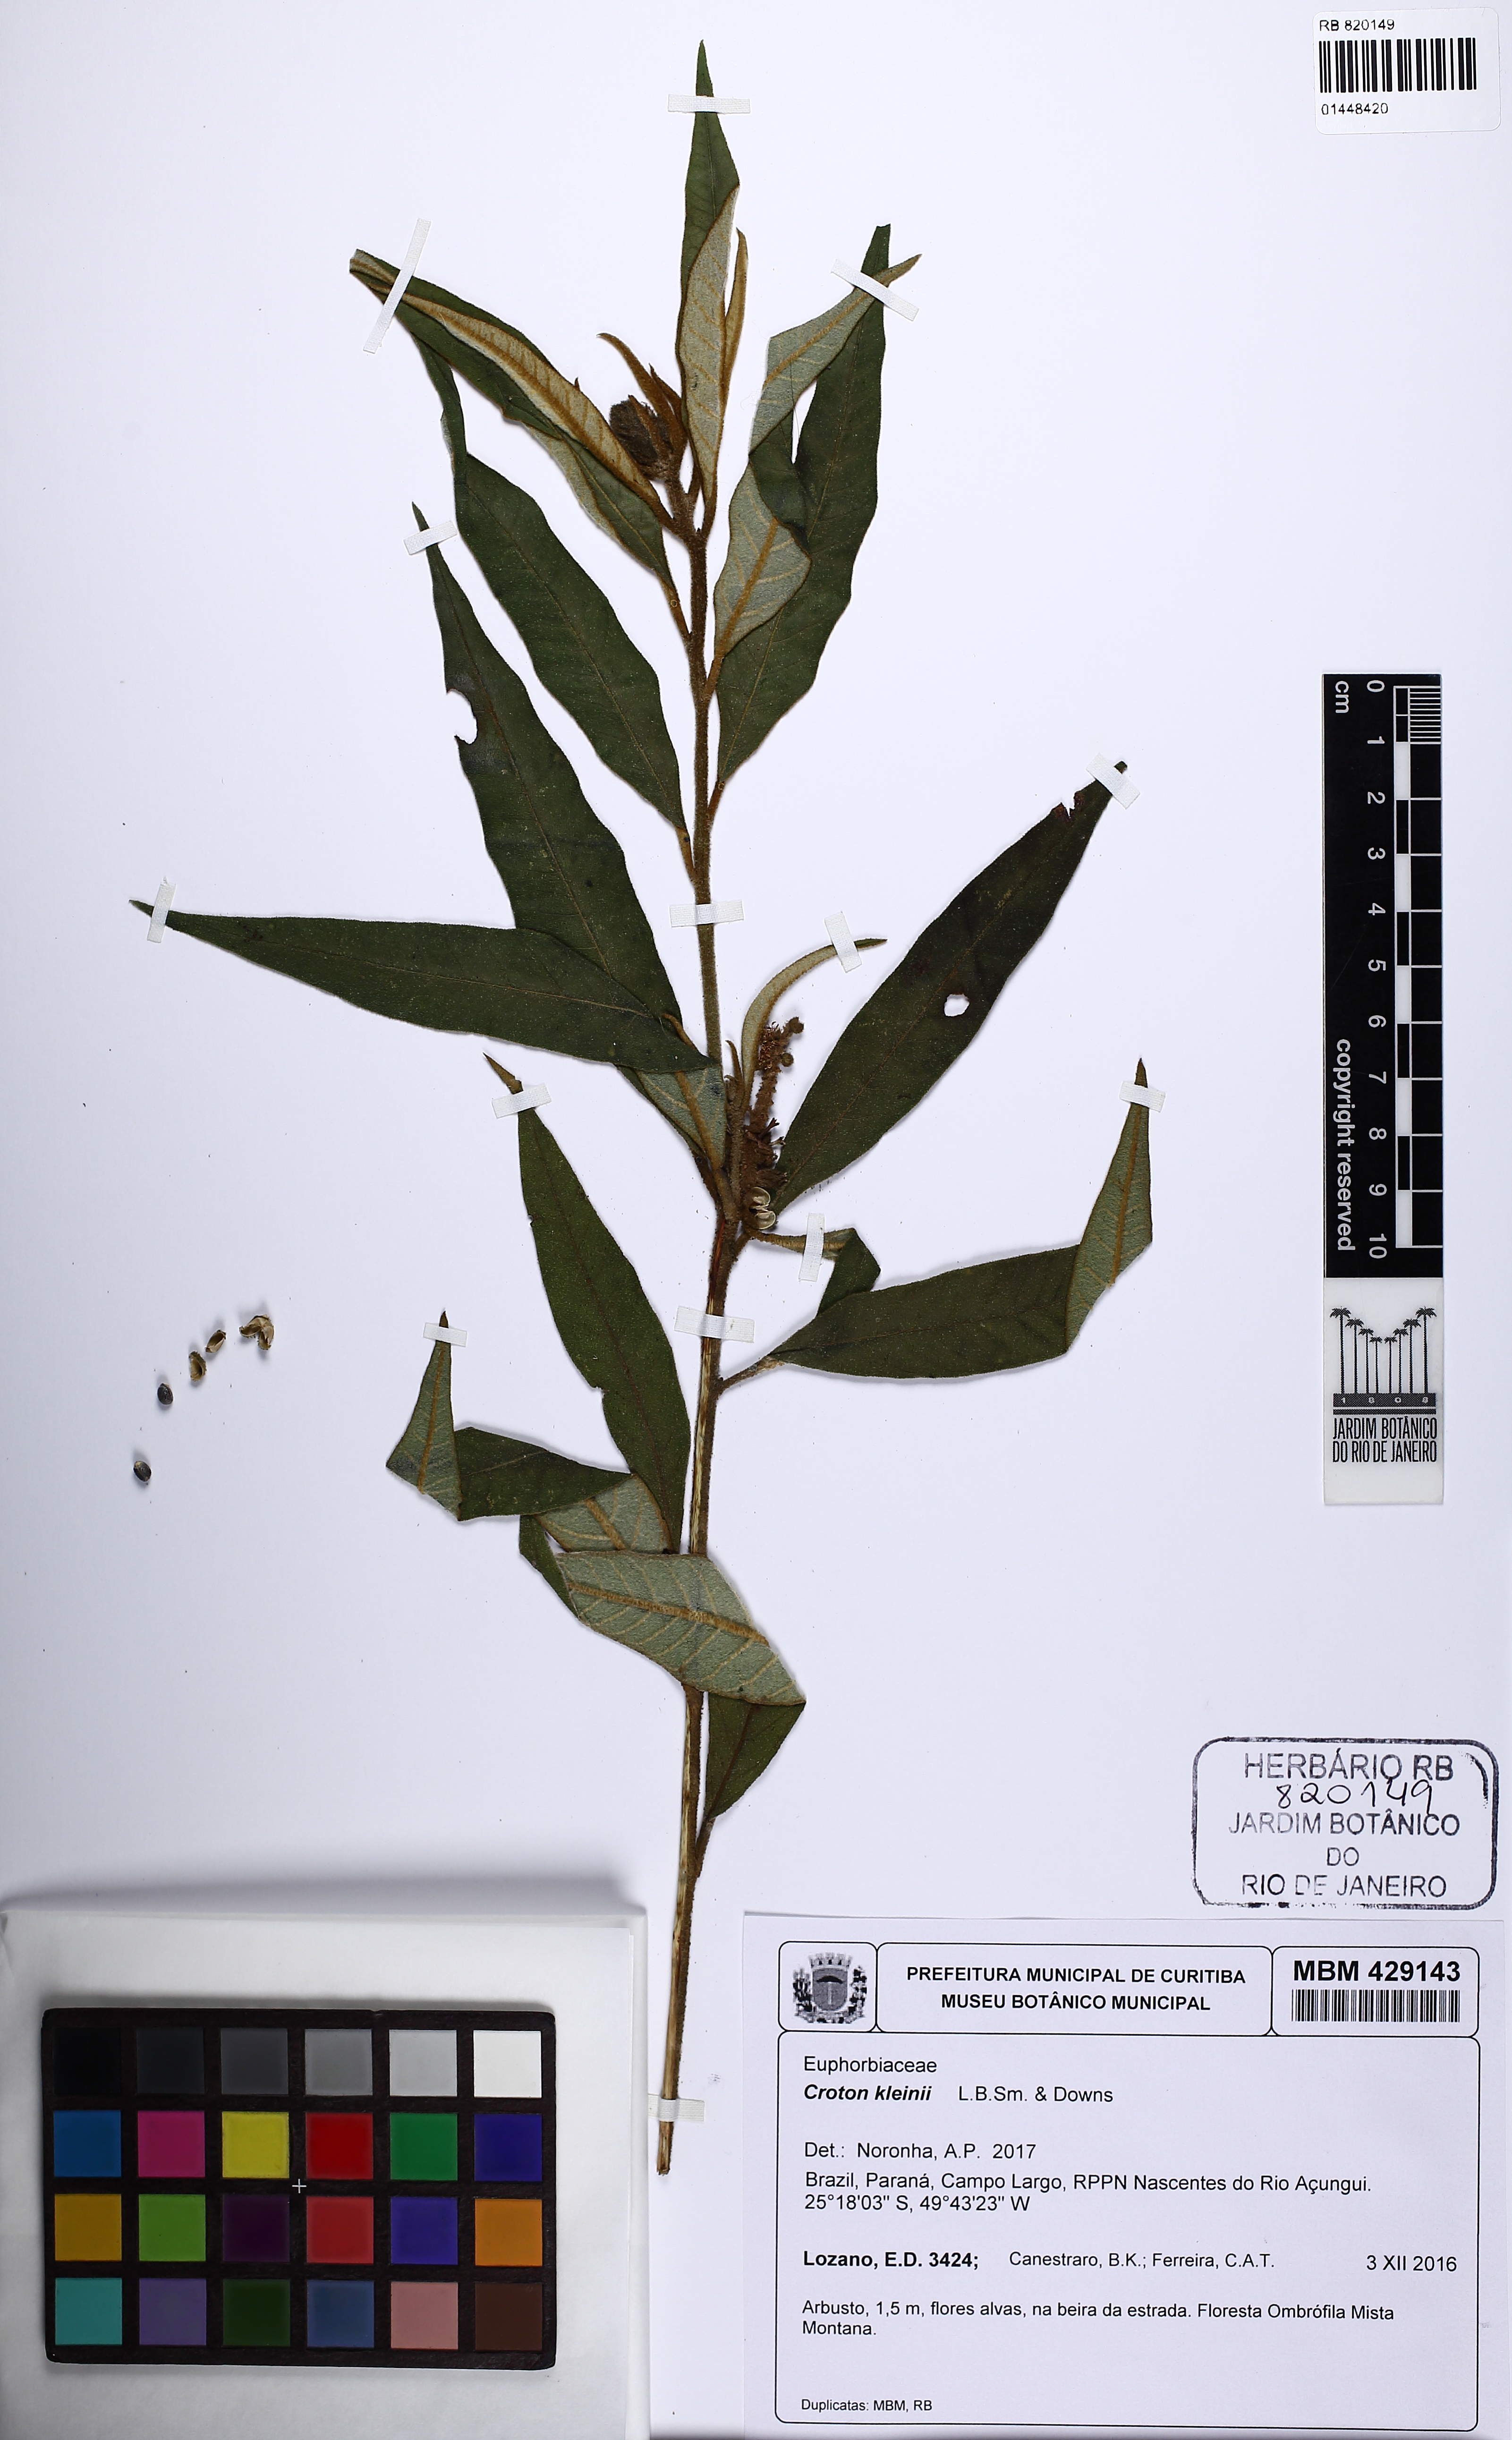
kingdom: Plantae
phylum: Tracheophyta
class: Magnoliopsida
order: Malpighiales
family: Euphorbiaceae
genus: Croton
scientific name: Croton kleinii
